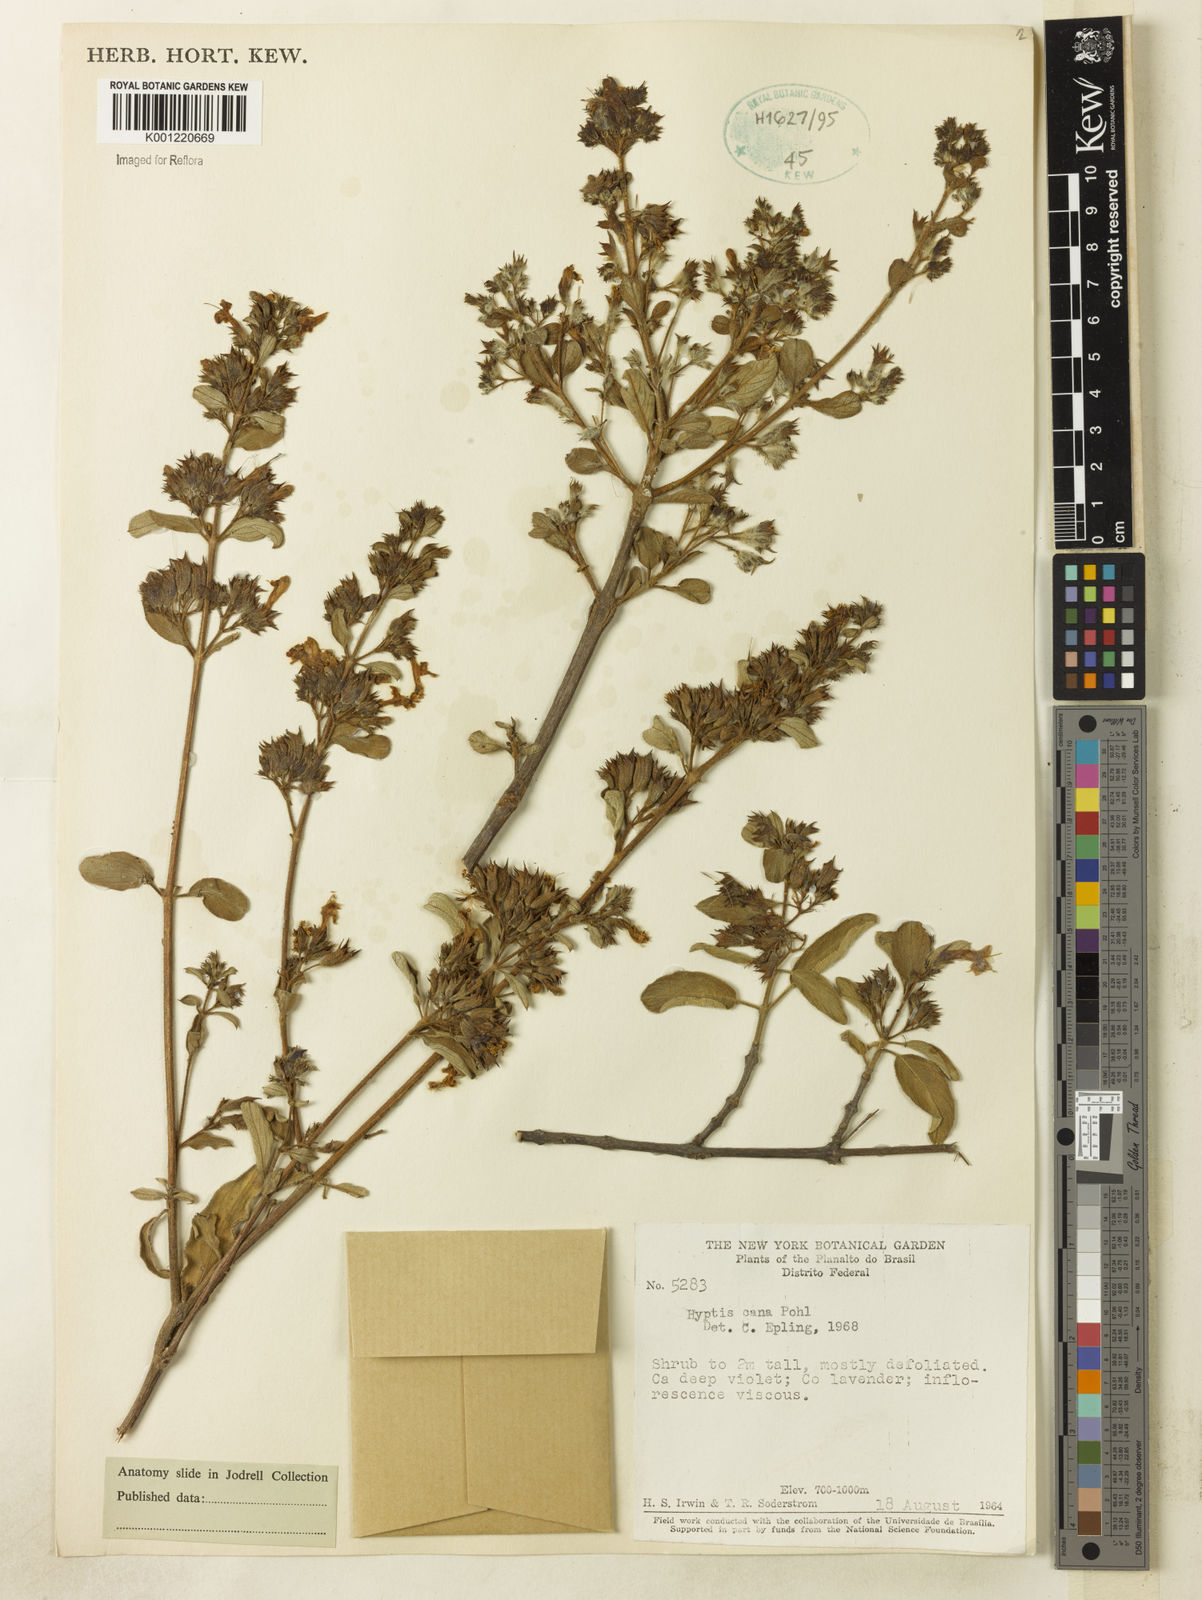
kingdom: Plantae
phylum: Tracheophyta
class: Magnoliopsida
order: Lamiales
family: Lamiaceae
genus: Hyptidendron
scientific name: Hyptidendron canum
